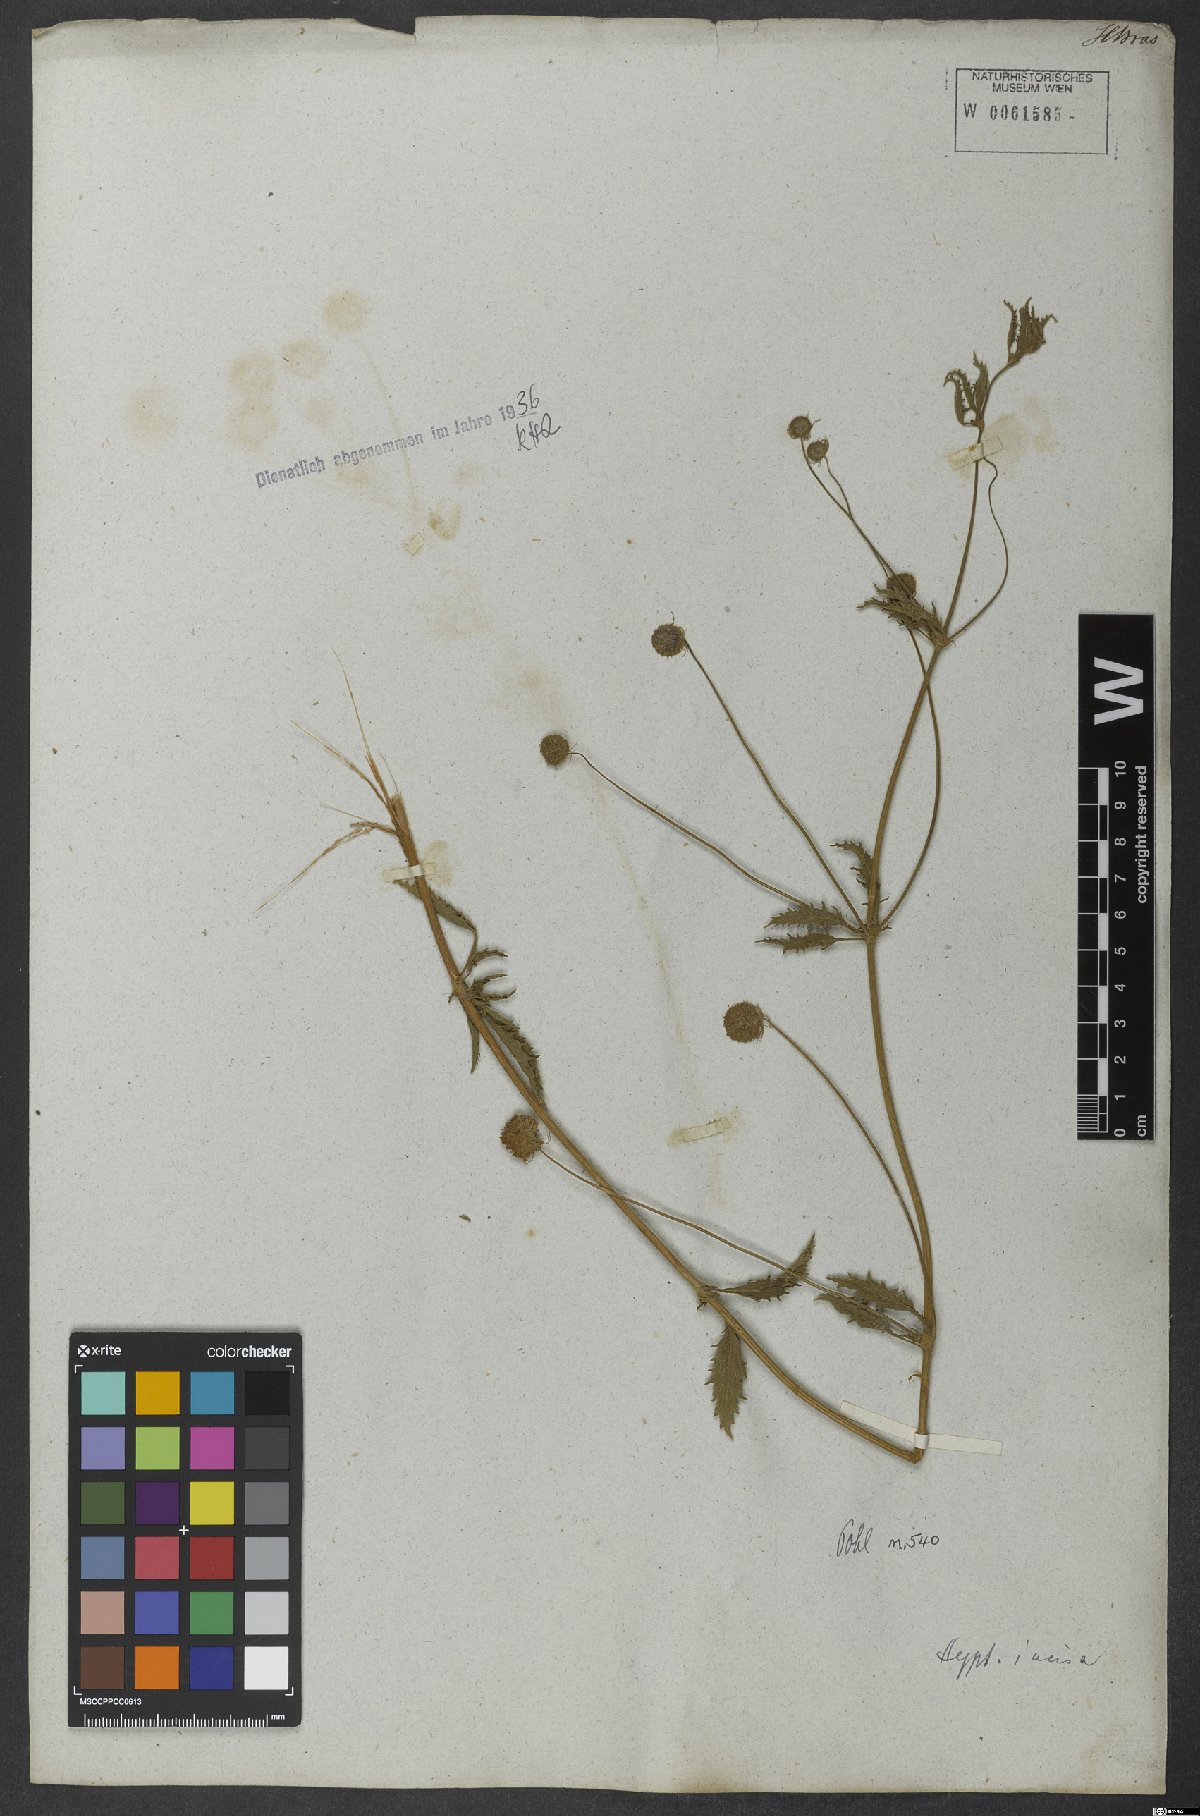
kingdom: Plantae
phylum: Tracheophyta
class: Magnoliopsida
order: Lamiales
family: Lamiaceae
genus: Cyanocephalus
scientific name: Cyanocephalus rugosus
